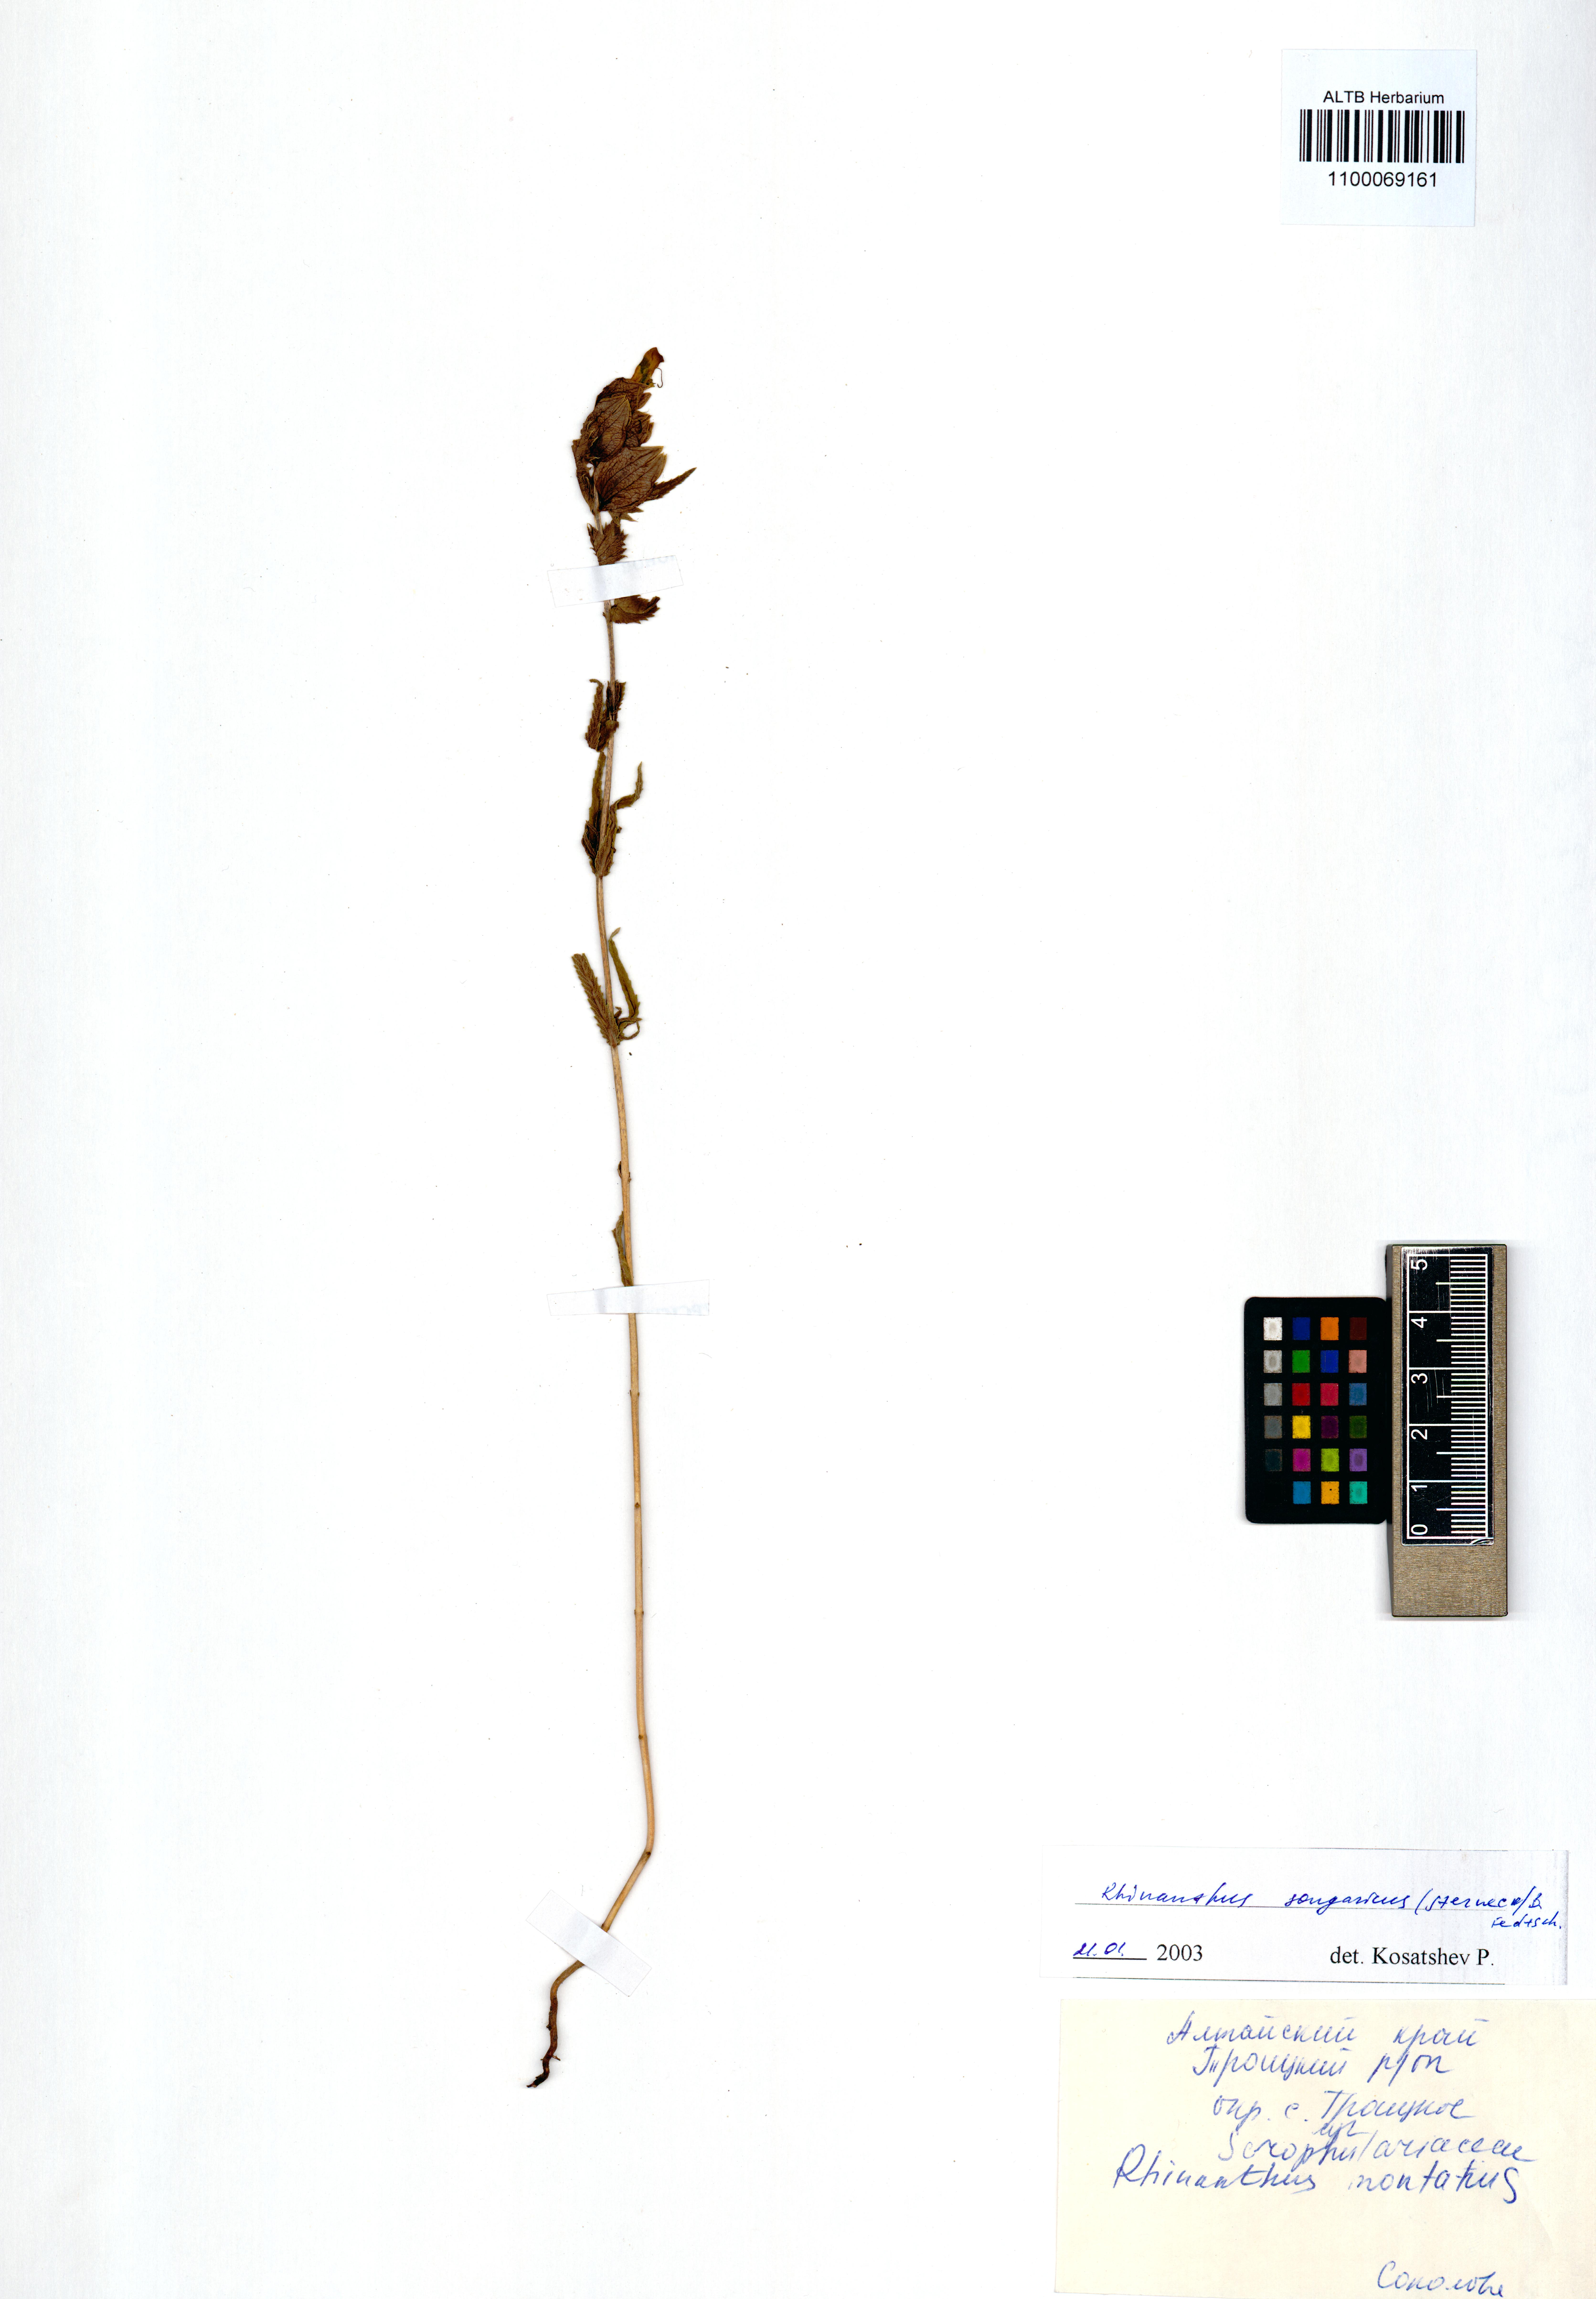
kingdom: Plantae
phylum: Tracheophyta
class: Magnoliopsida
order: Lamiales
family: Orobanchaceae
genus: Rhinanthus
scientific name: Rhinanthus songaricus
